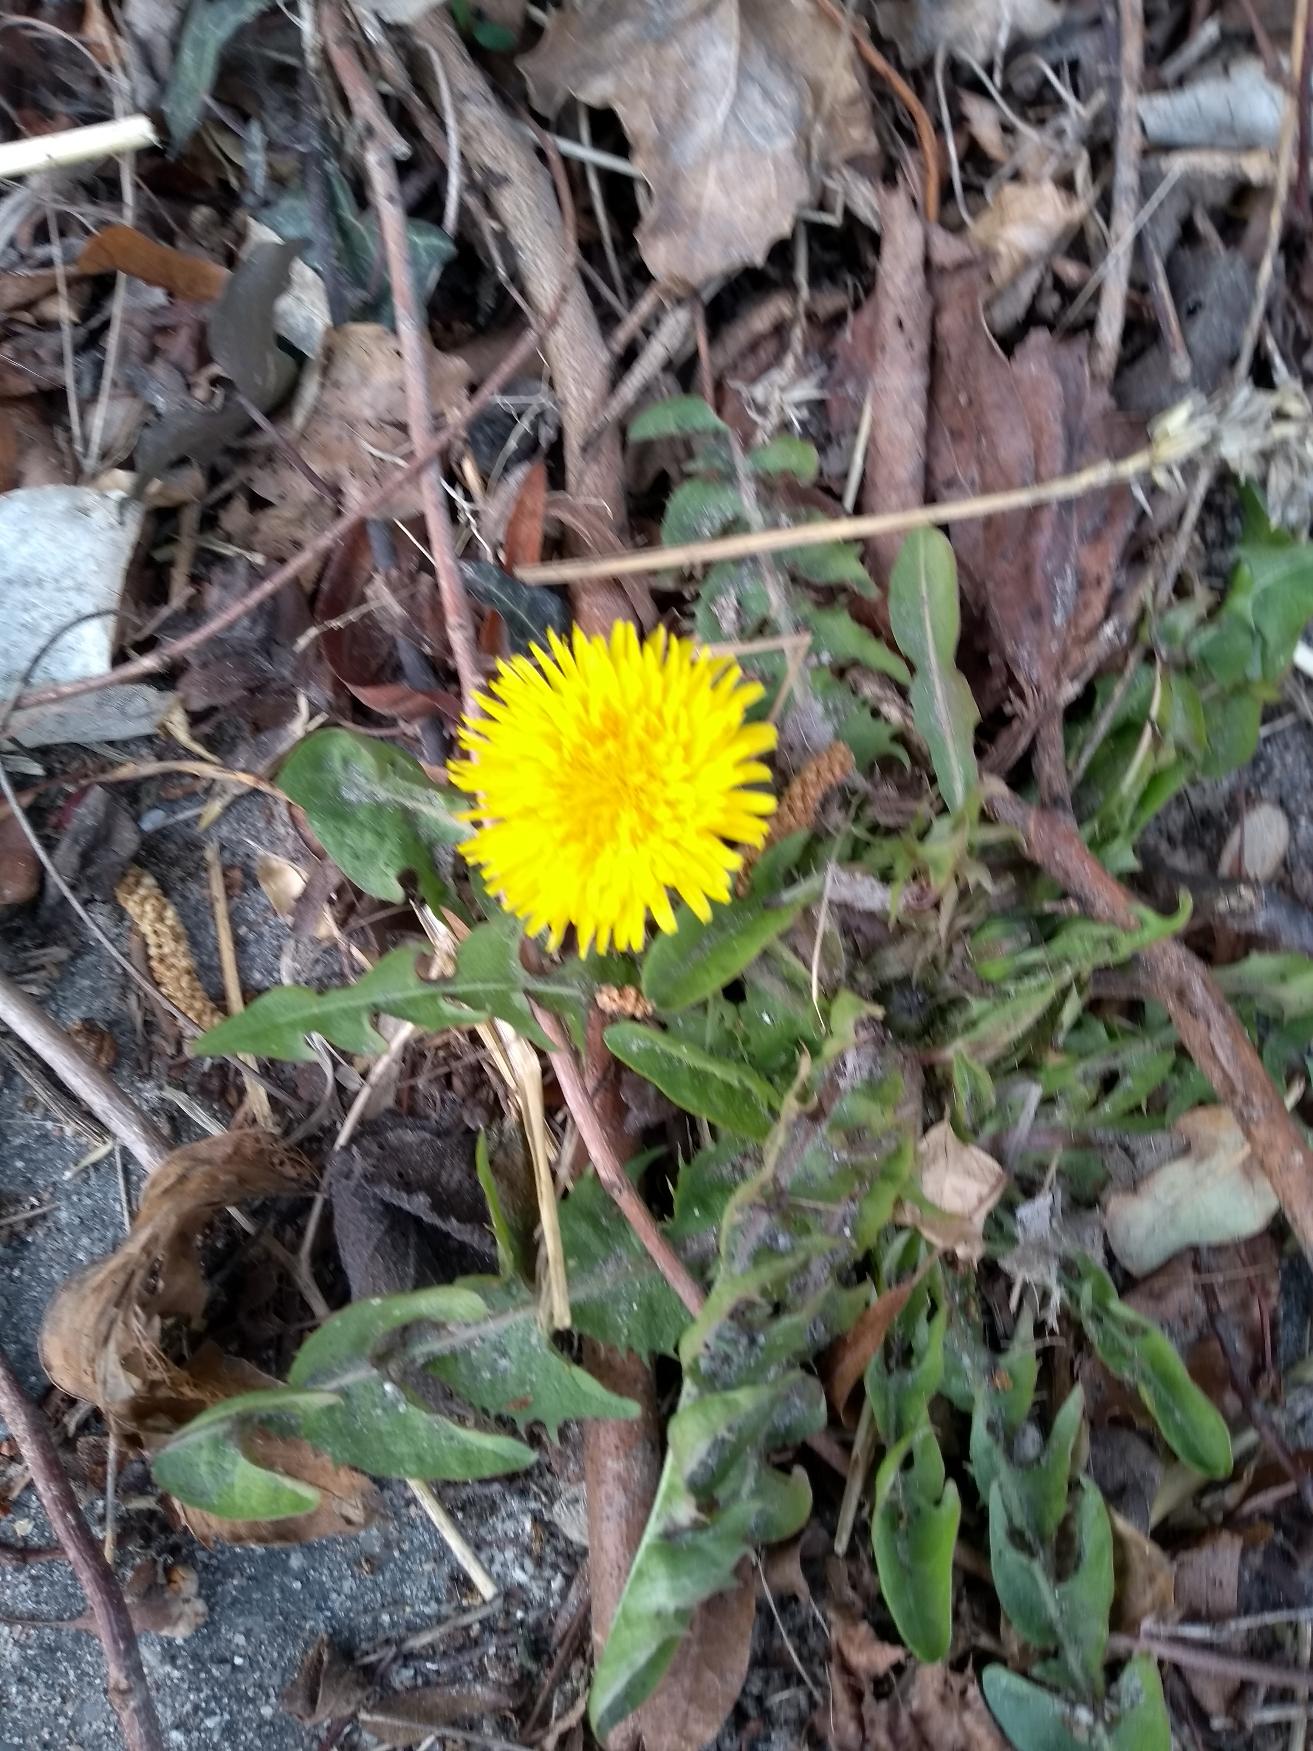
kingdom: Plantae
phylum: Tracheophyta
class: Magnoliopsida
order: Asterales
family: Asteraceae
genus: Taraxacum
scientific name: Taraxacum
